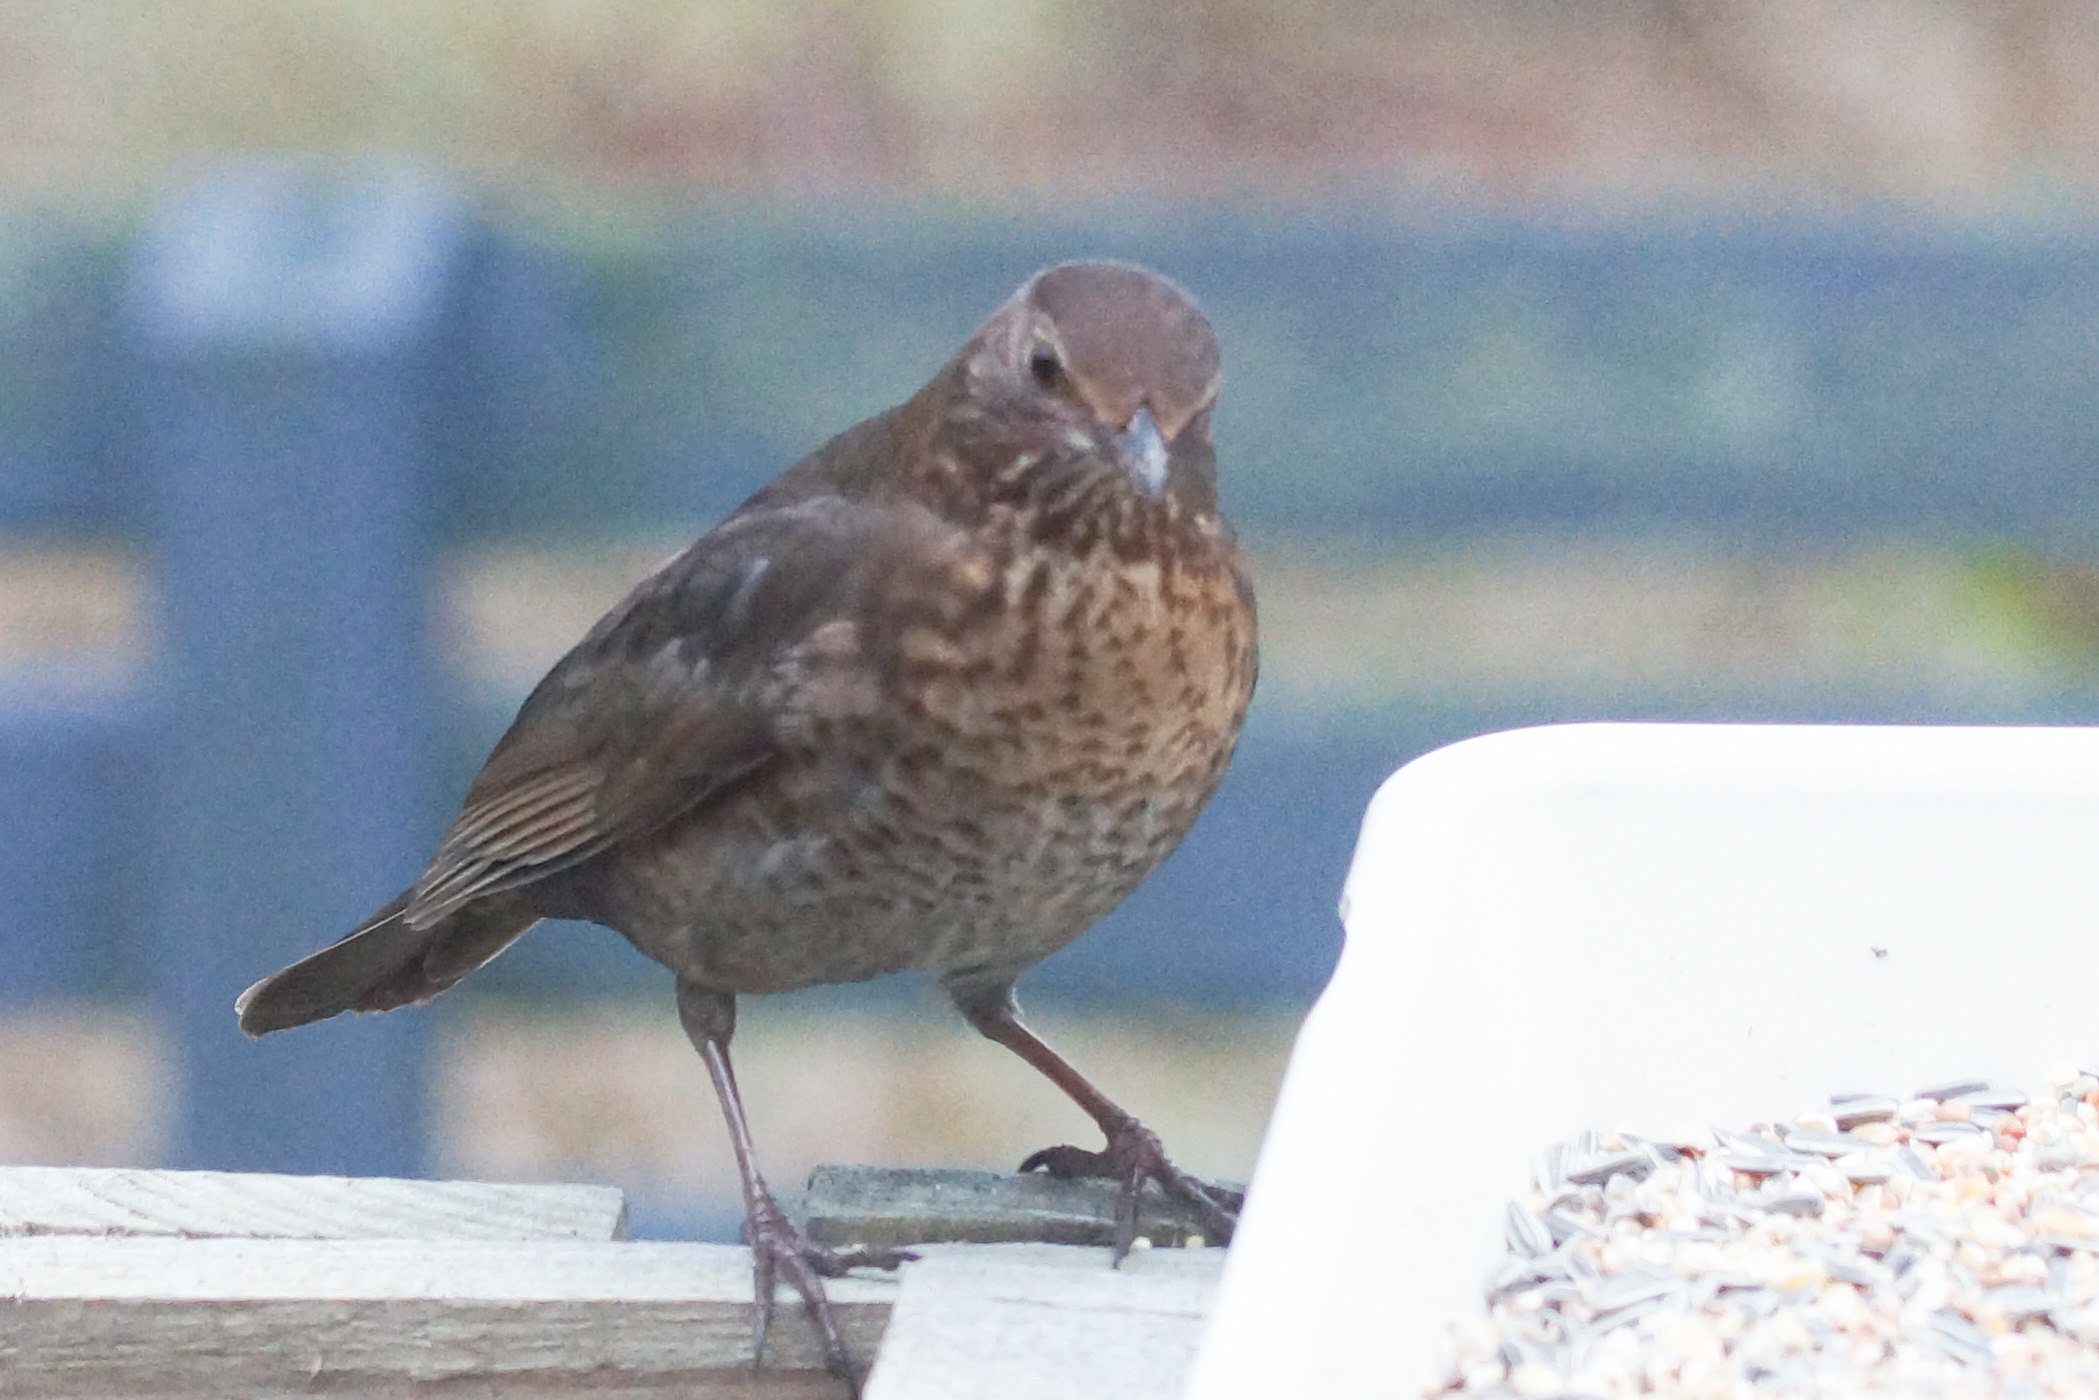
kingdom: Animalia
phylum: Chordata
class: Aves
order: Passeriformes
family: Turdidae
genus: Turdus
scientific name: Turdus merula
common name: Solsort
